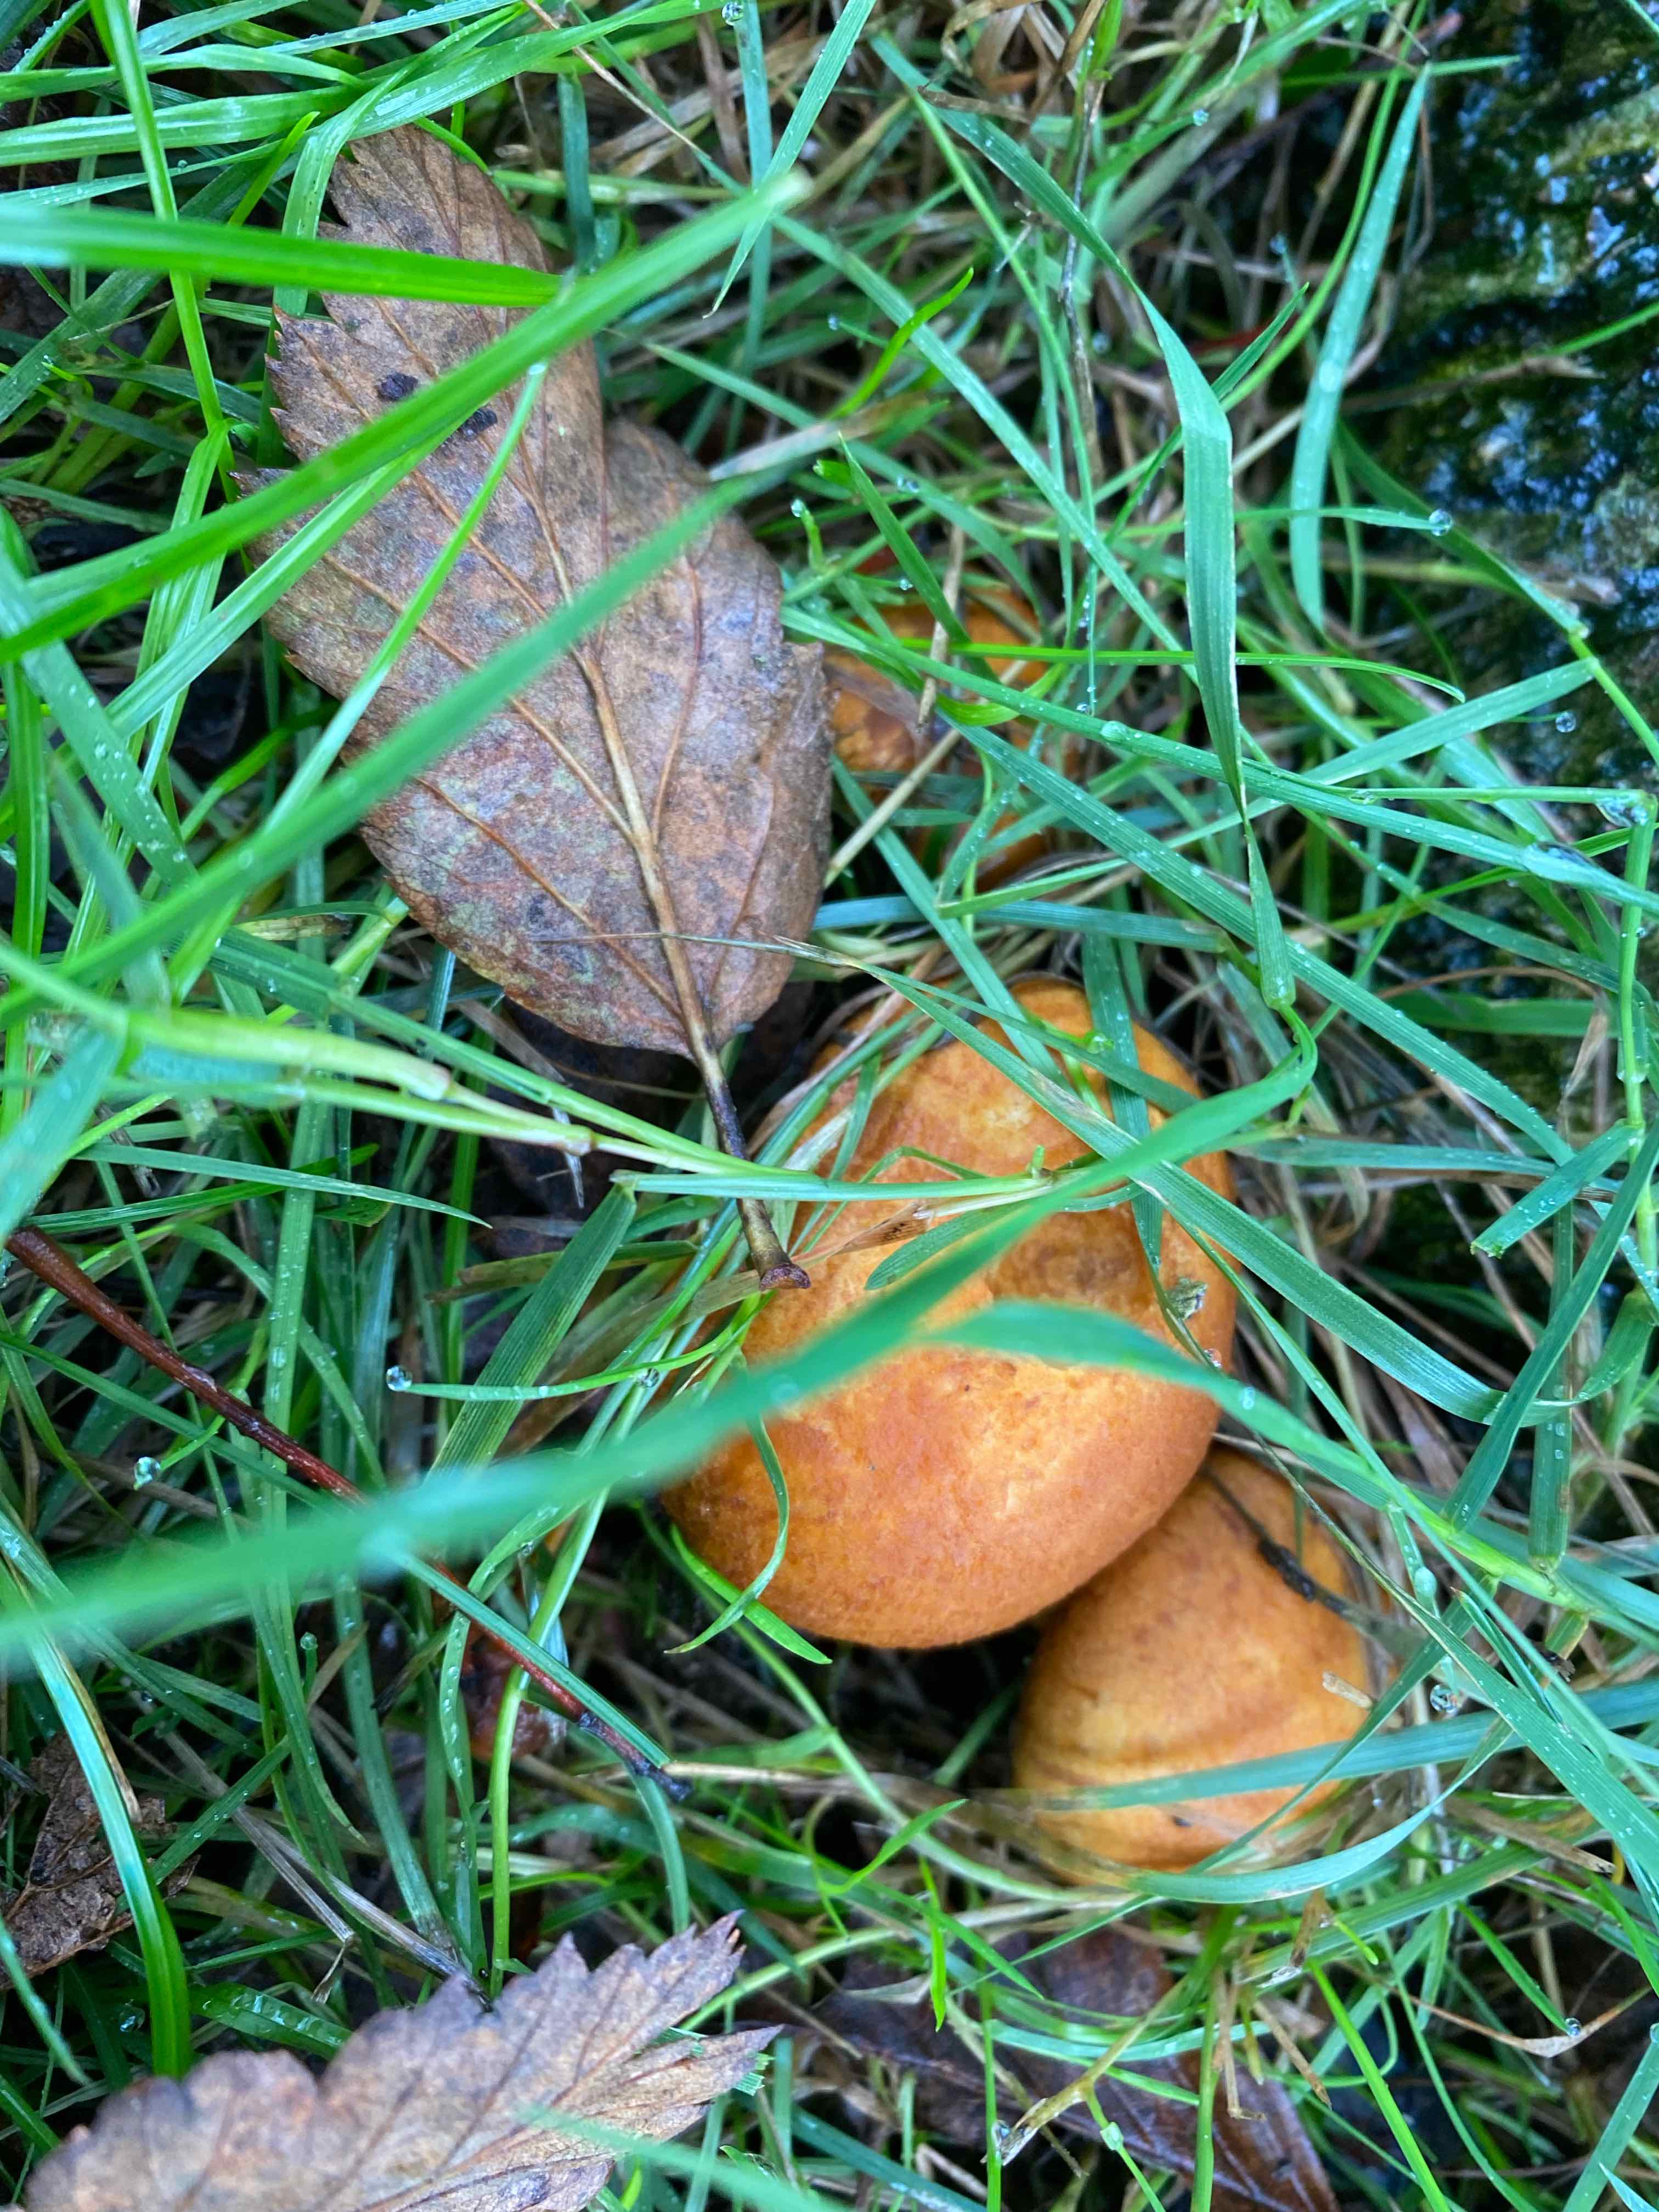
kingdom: Fungi
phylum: Basidiomycota
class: Agaricomycetes
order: Agaricales
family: Hymenogastraceae
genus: Gymnopilus
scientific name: Gymnopilus spectabilis
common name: fibret flammehat
